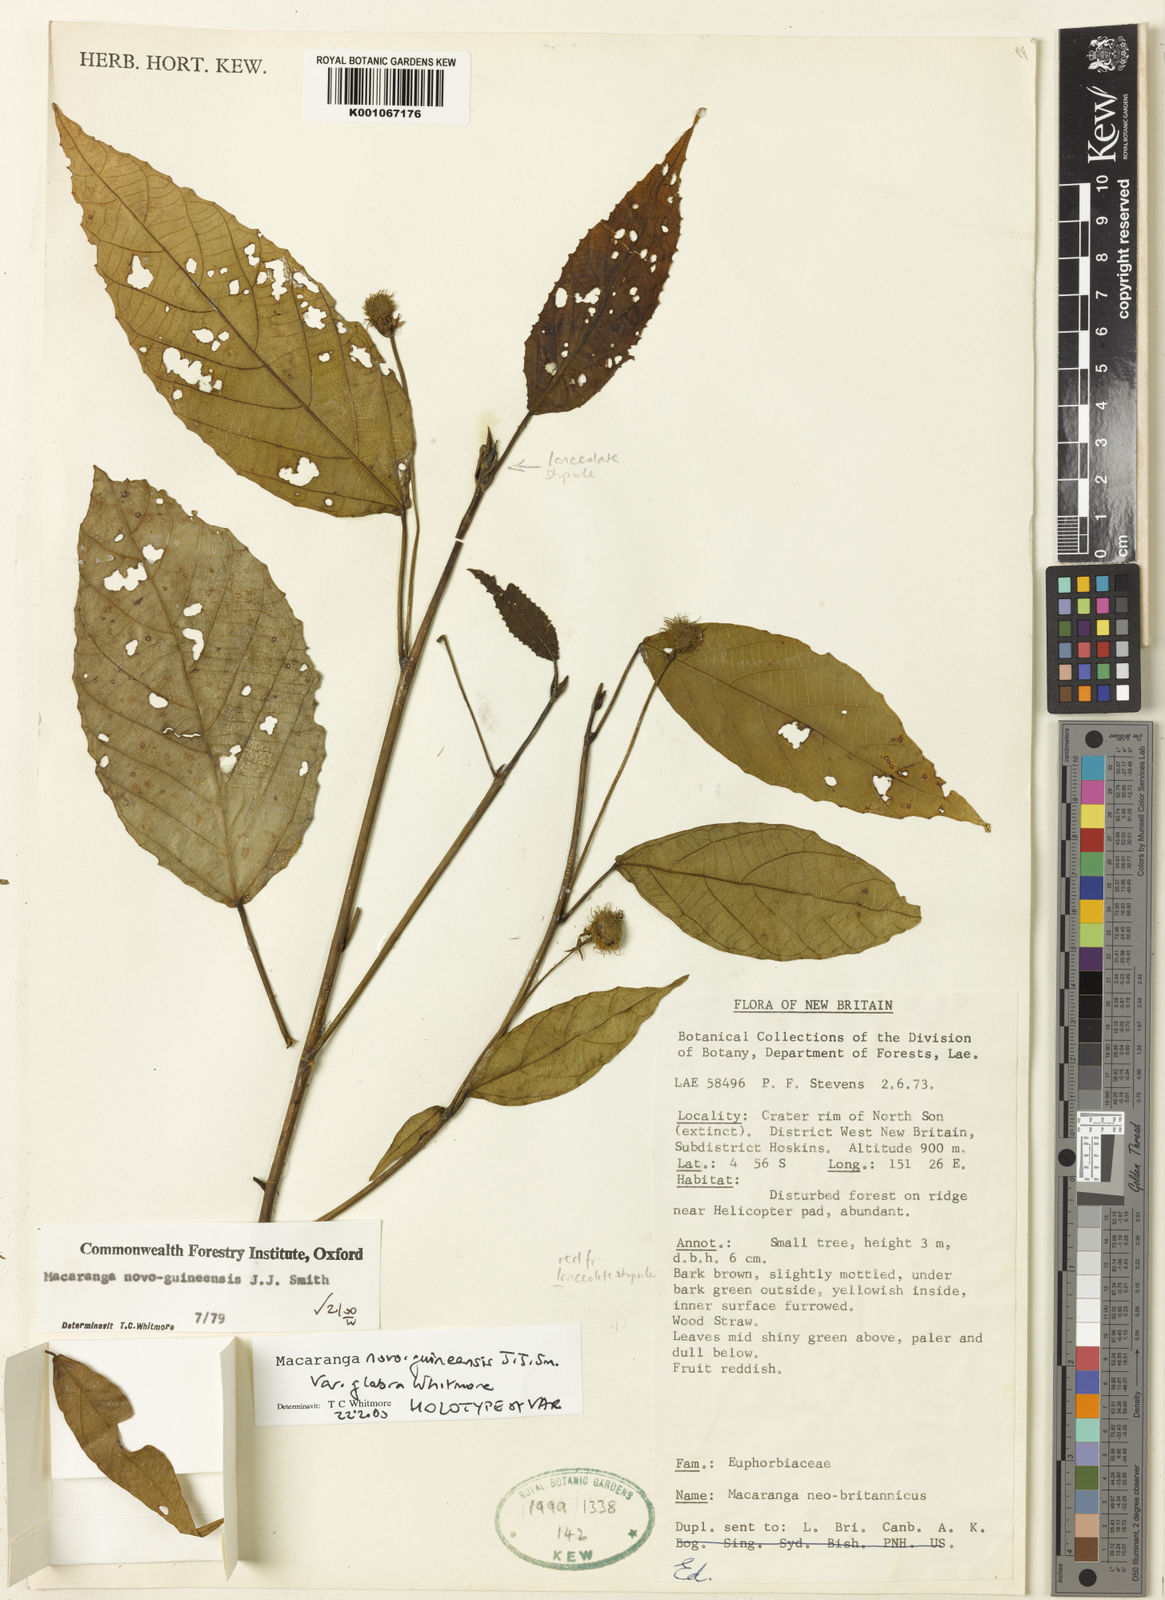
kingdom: Plantae
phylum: Tracheophyta
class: Magnoliopsida
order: Malpighiales
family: Euphorbiaceae
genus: Macaranga
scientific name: Macaranga novoguineensis
